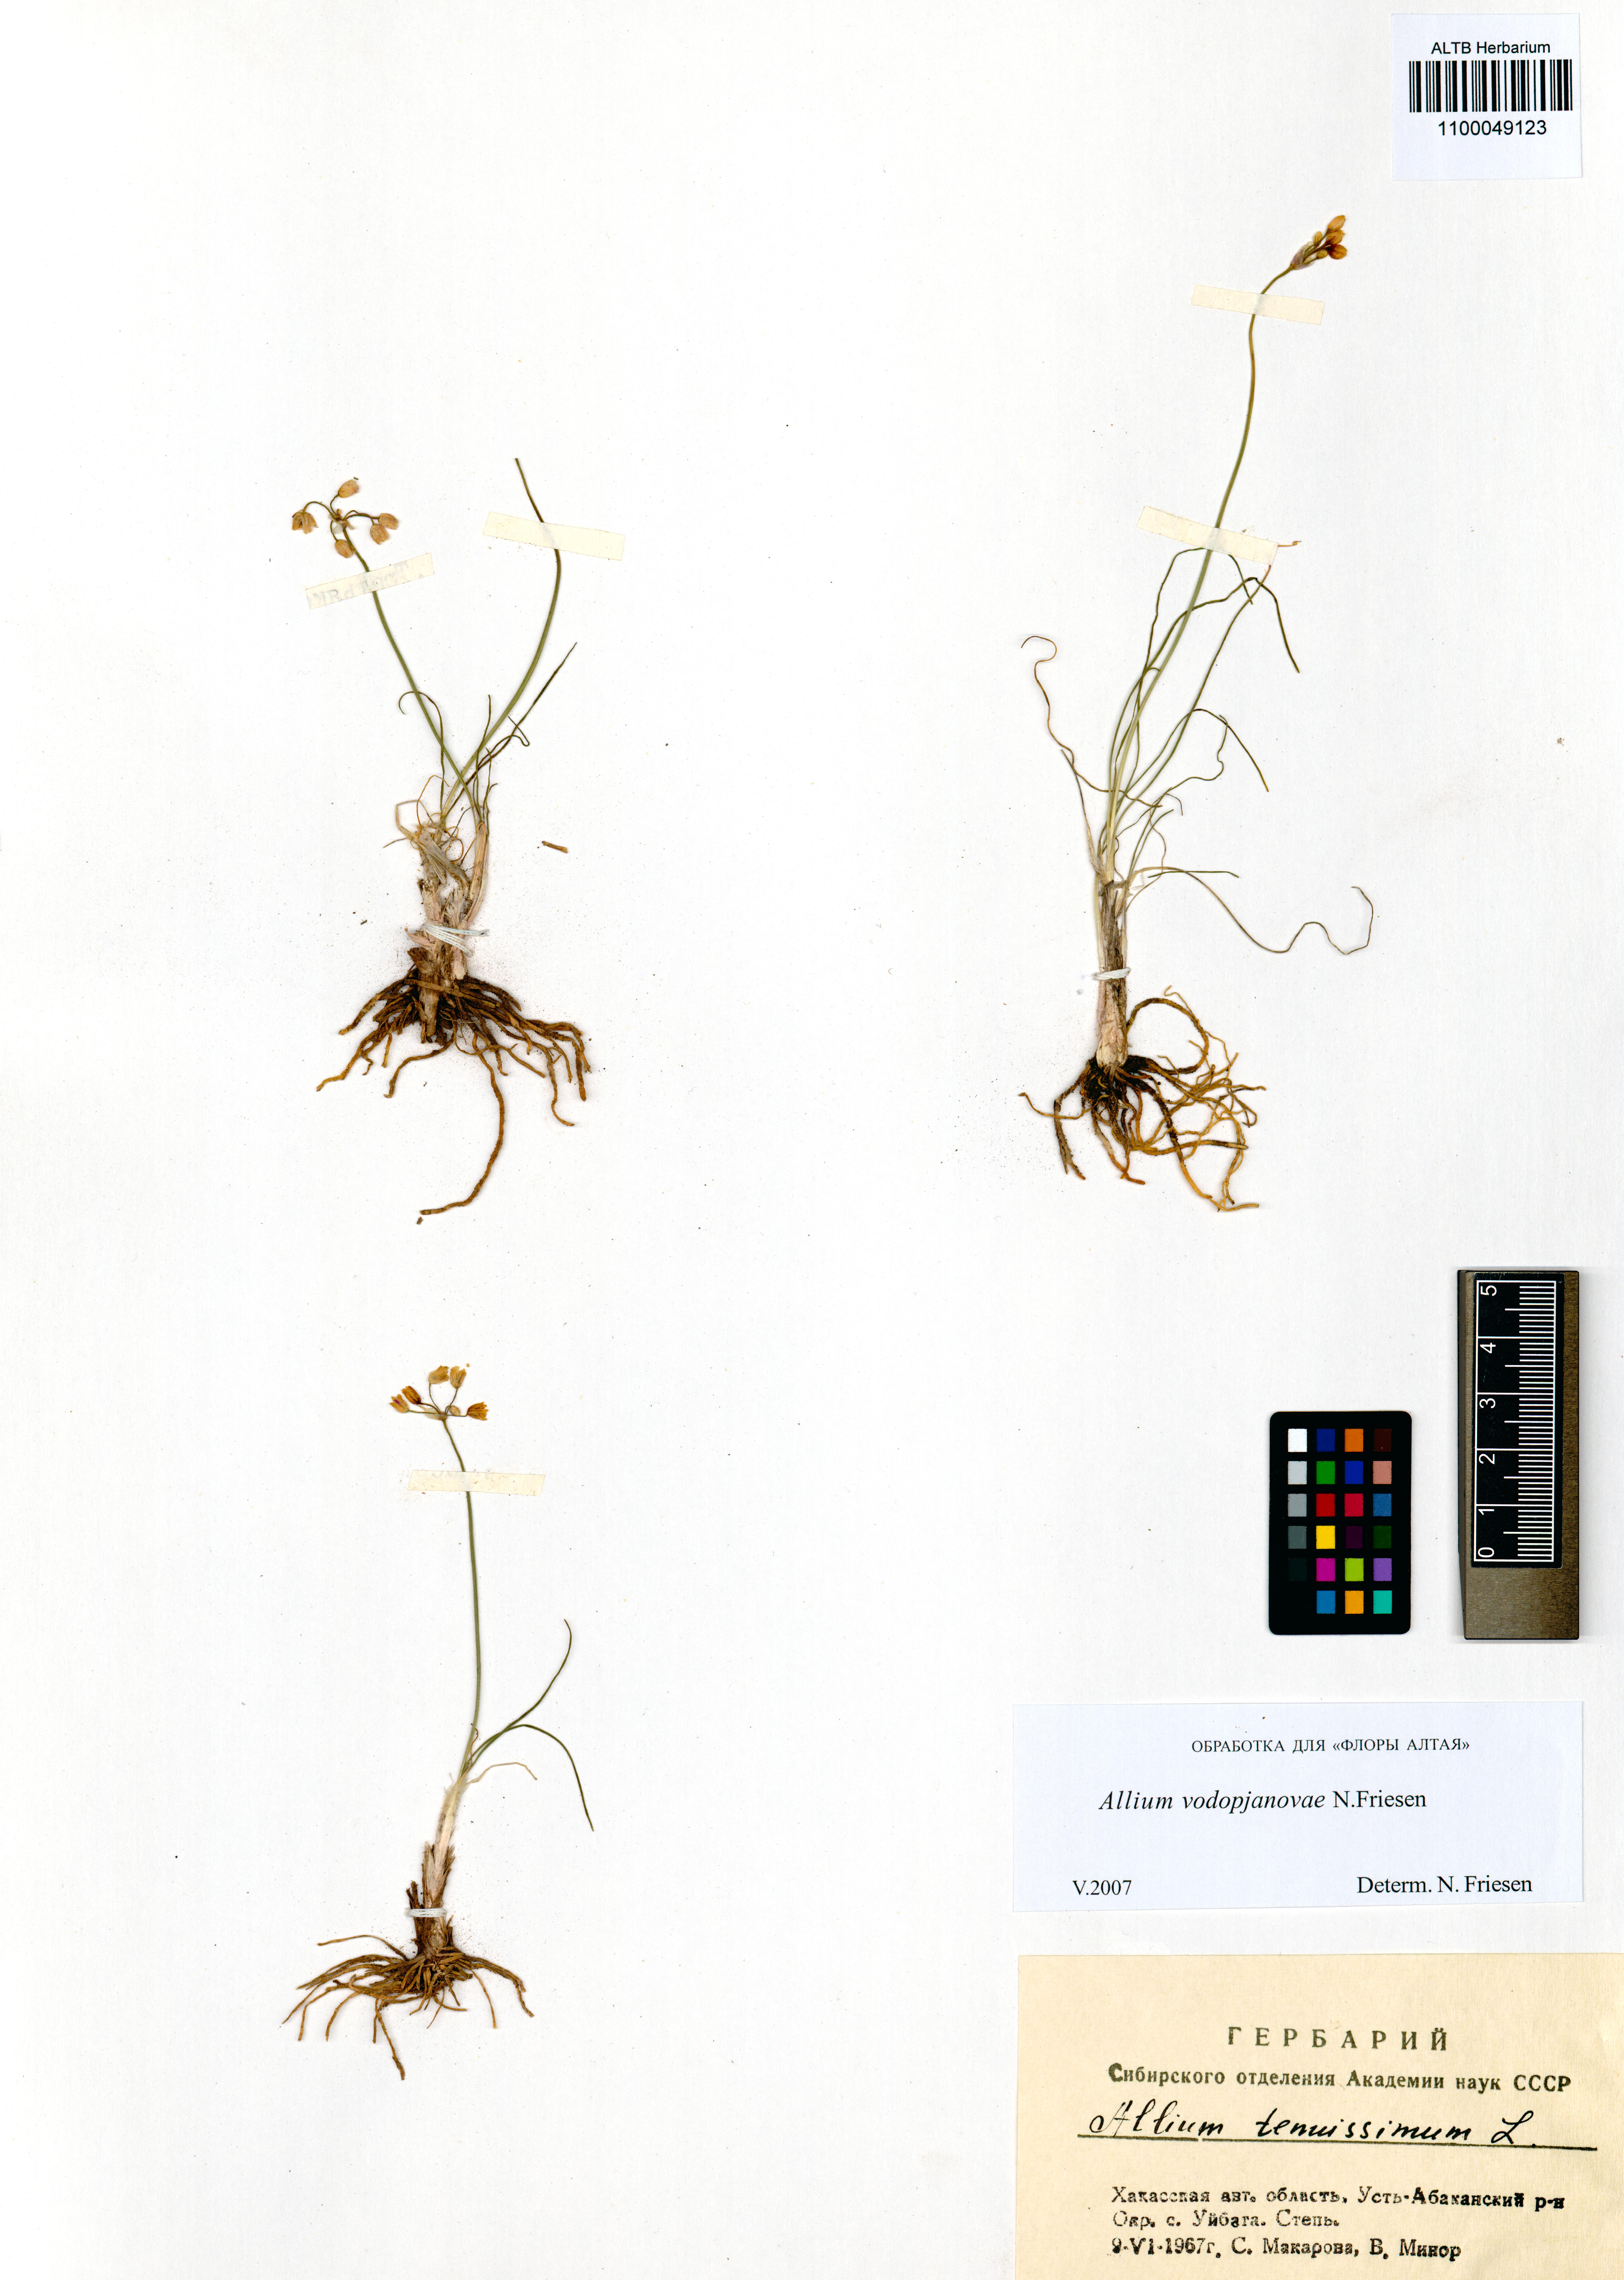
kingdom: Plantae
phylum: Tracheophyta
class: Liliopsida
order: Asparagales
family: Amaryllidaceae
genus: Allium
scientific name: Allium vodopjanovae
